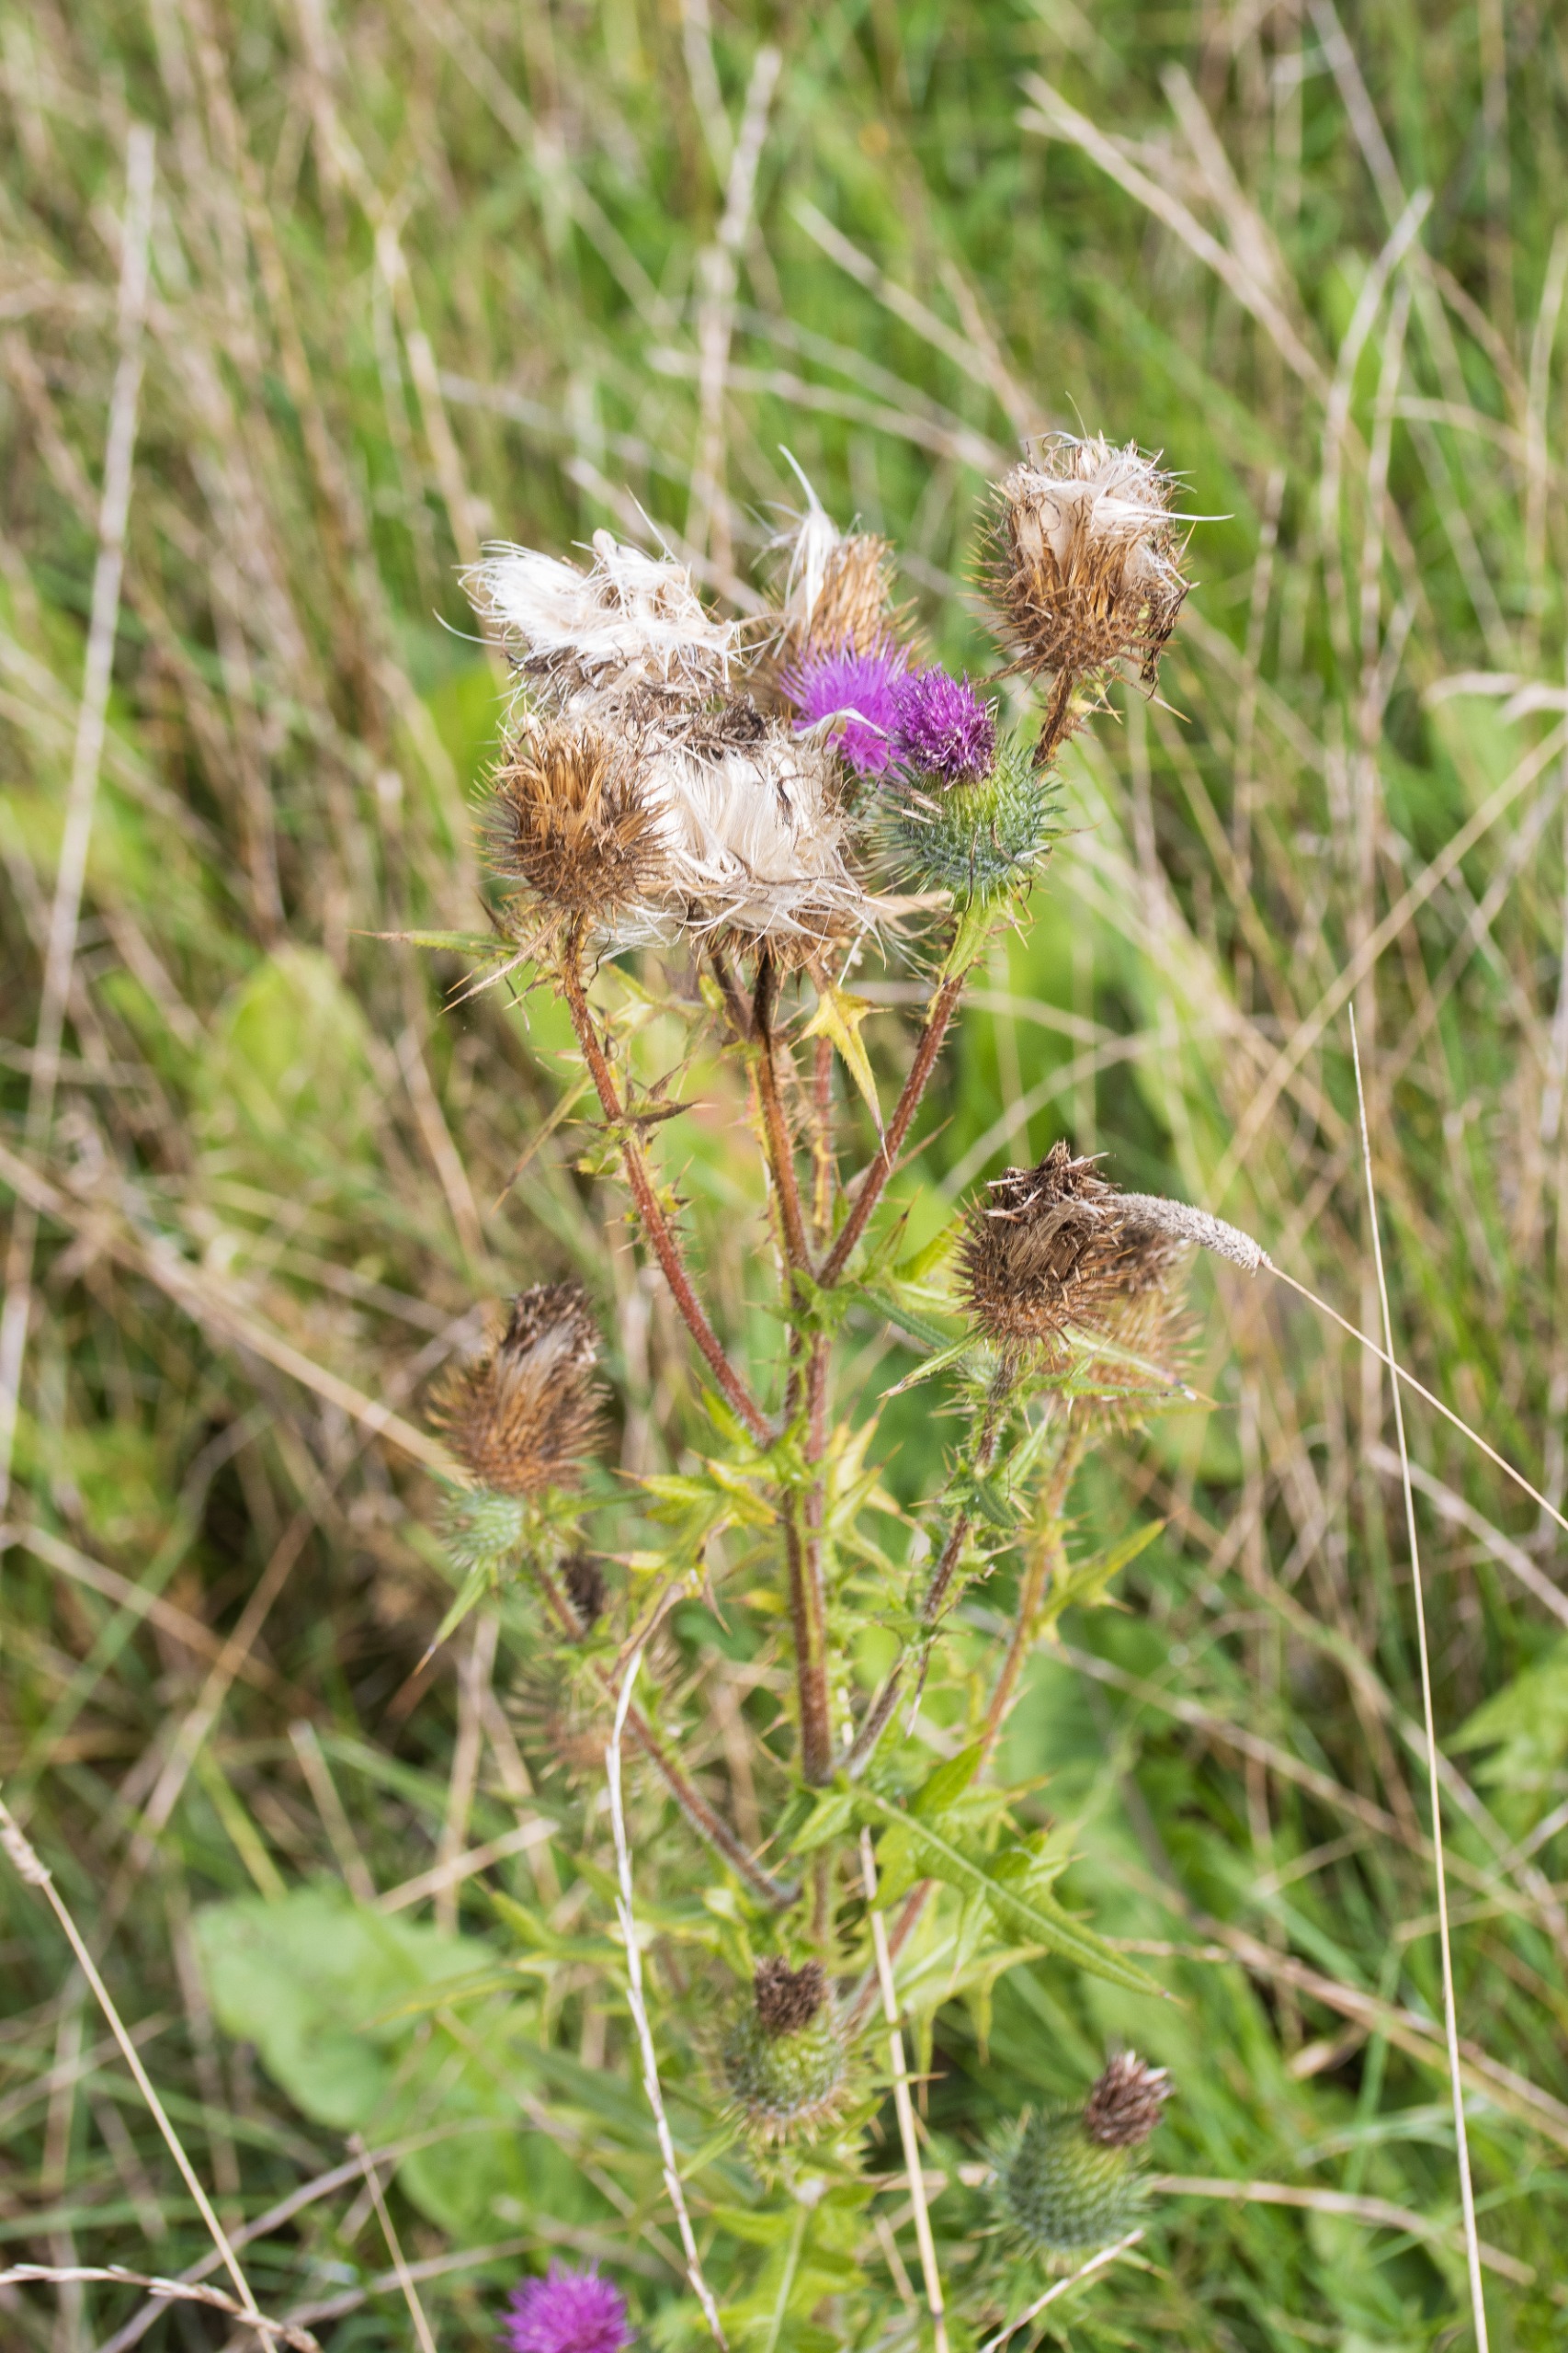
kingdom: Plantae
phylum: Tracheophyta
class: Magnoliopsida
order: Asterales
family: Asteraceae
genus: Cirsium
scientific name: Cirsium vulgare
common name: Horse-tidsel
